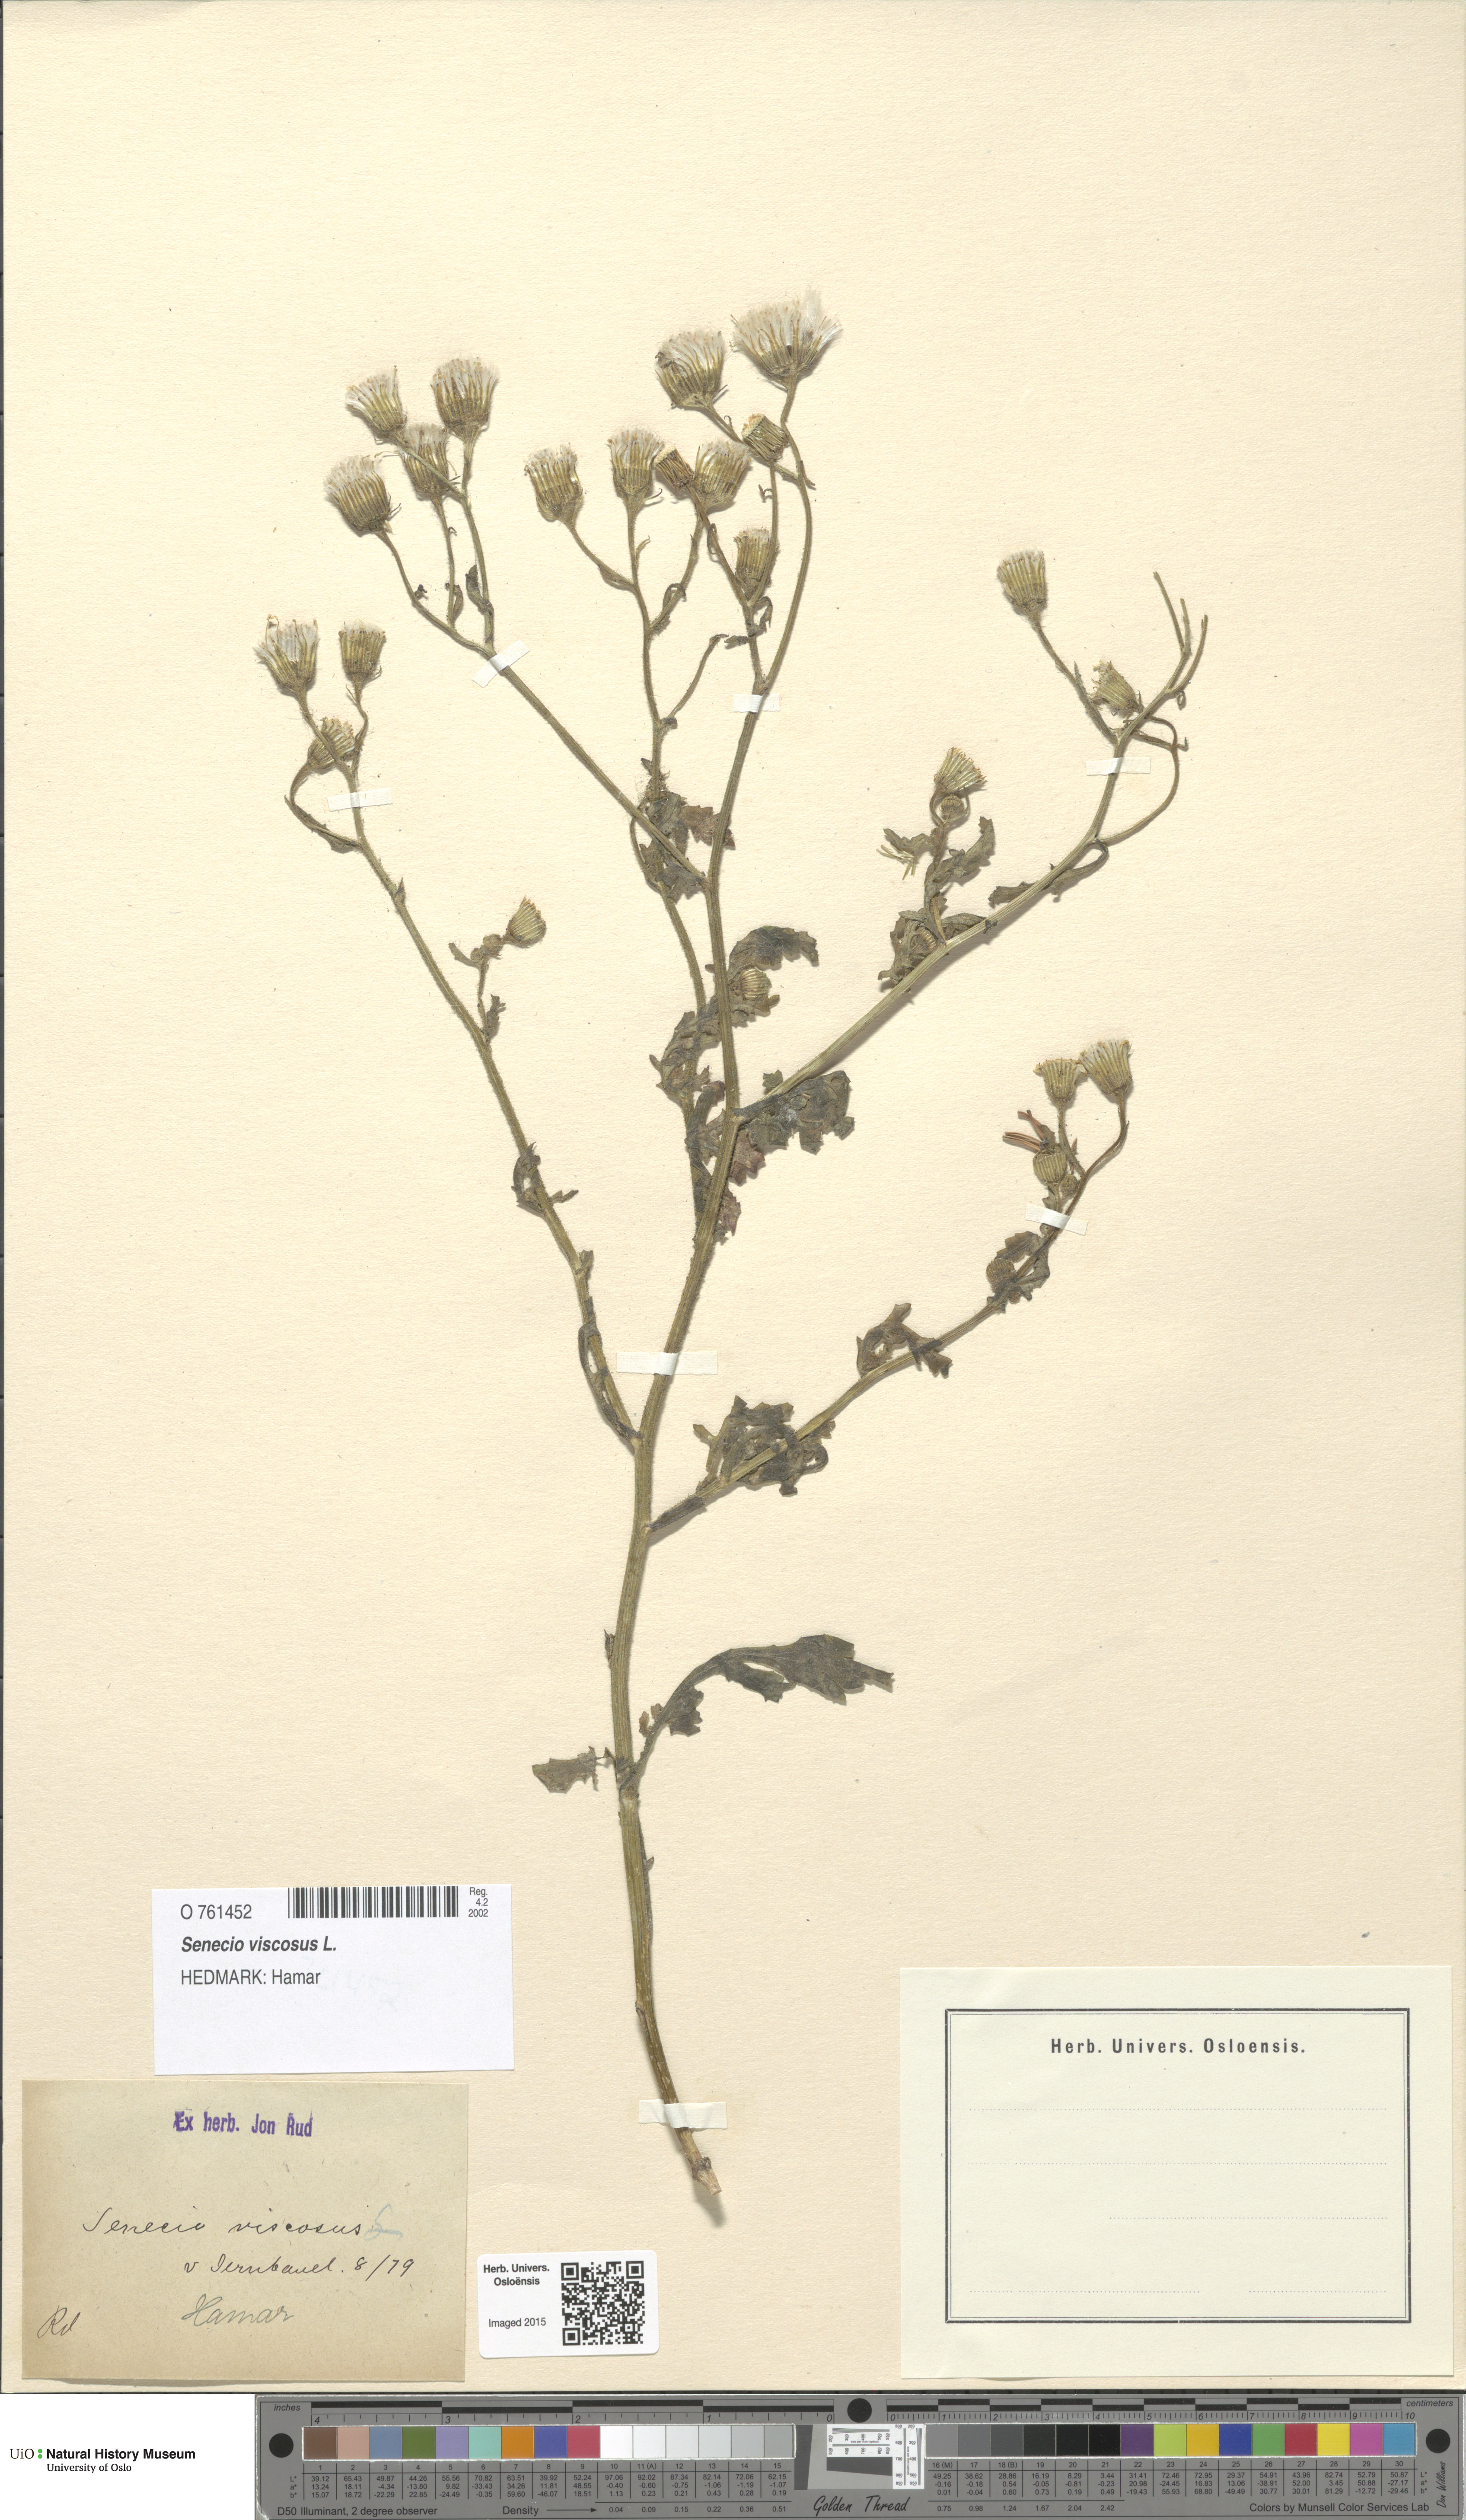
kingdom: Plantae
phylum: Tracheophyta
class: Magnoliopsida
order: Asterales
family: Asteraceae
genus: Senecio
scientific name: Senecio viscosus
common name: Sticky groundsel
